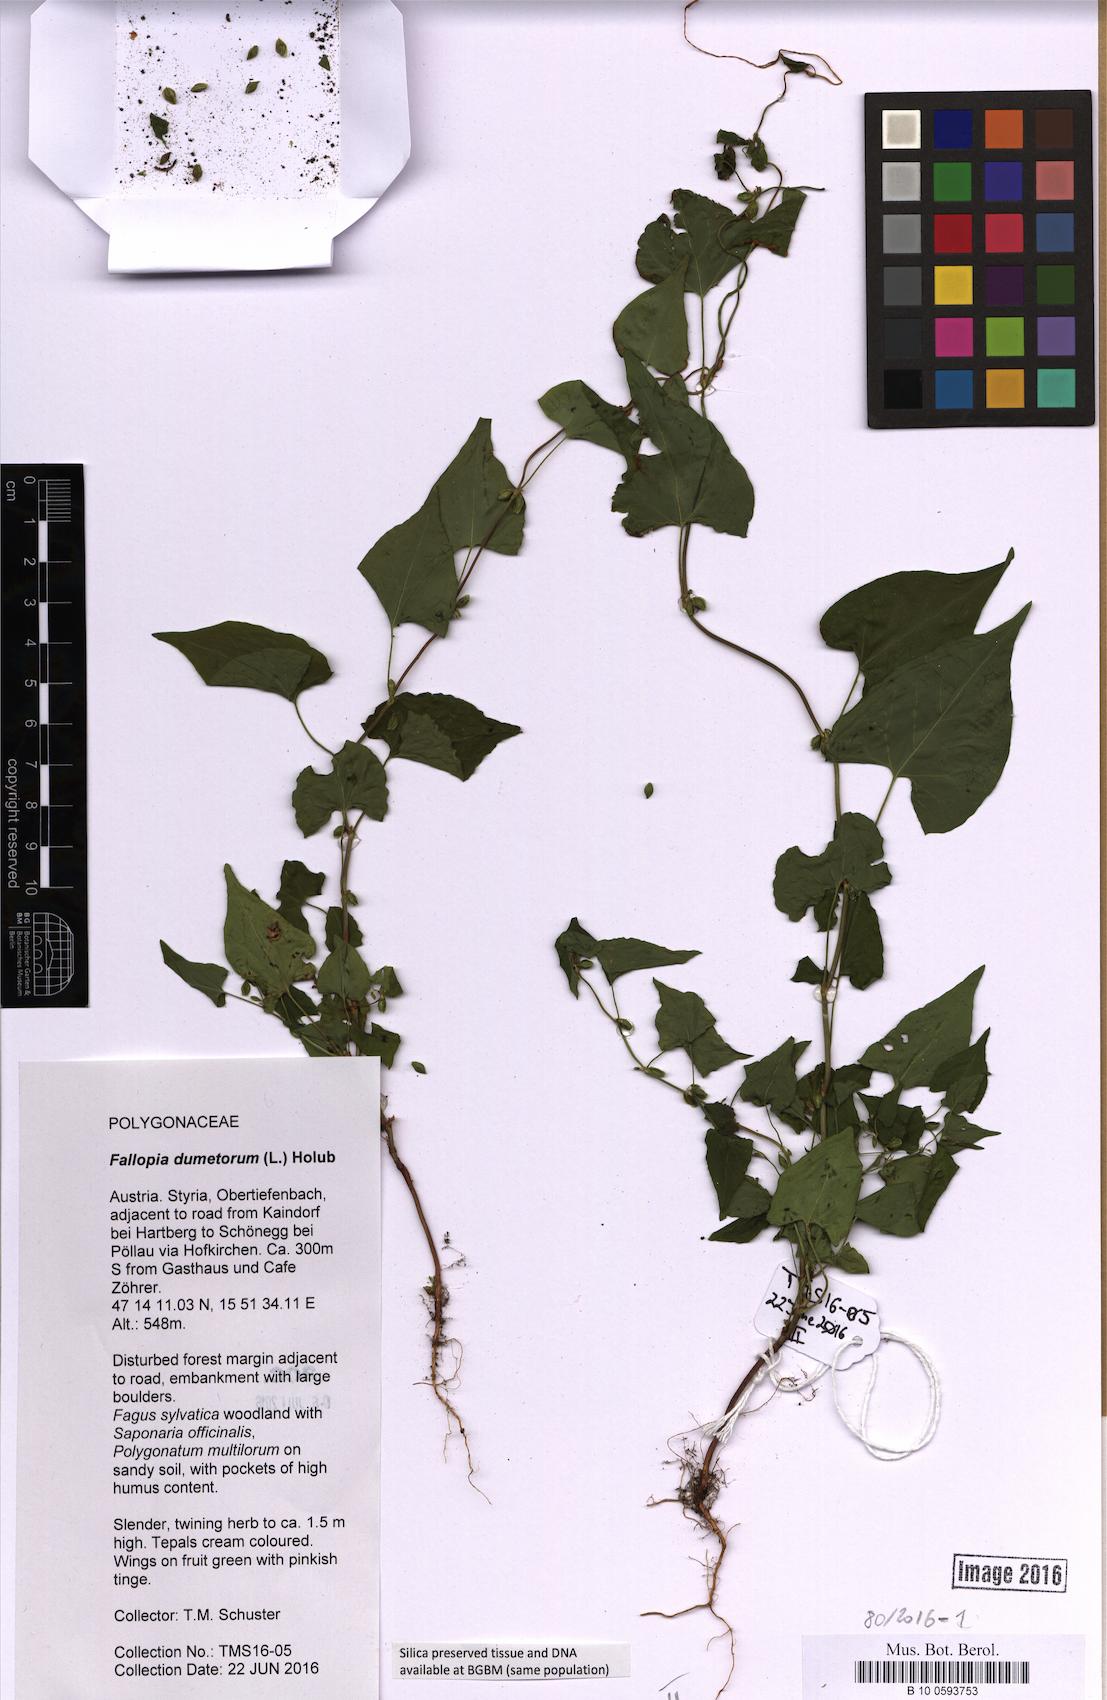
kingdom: Plantae
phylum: Tracheophyta
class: Magnoliopsida
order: Caryophyllales
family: Polygonaceae
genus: Fallopia
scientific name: Fallopia dumetorum
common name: Copse-bindweed
